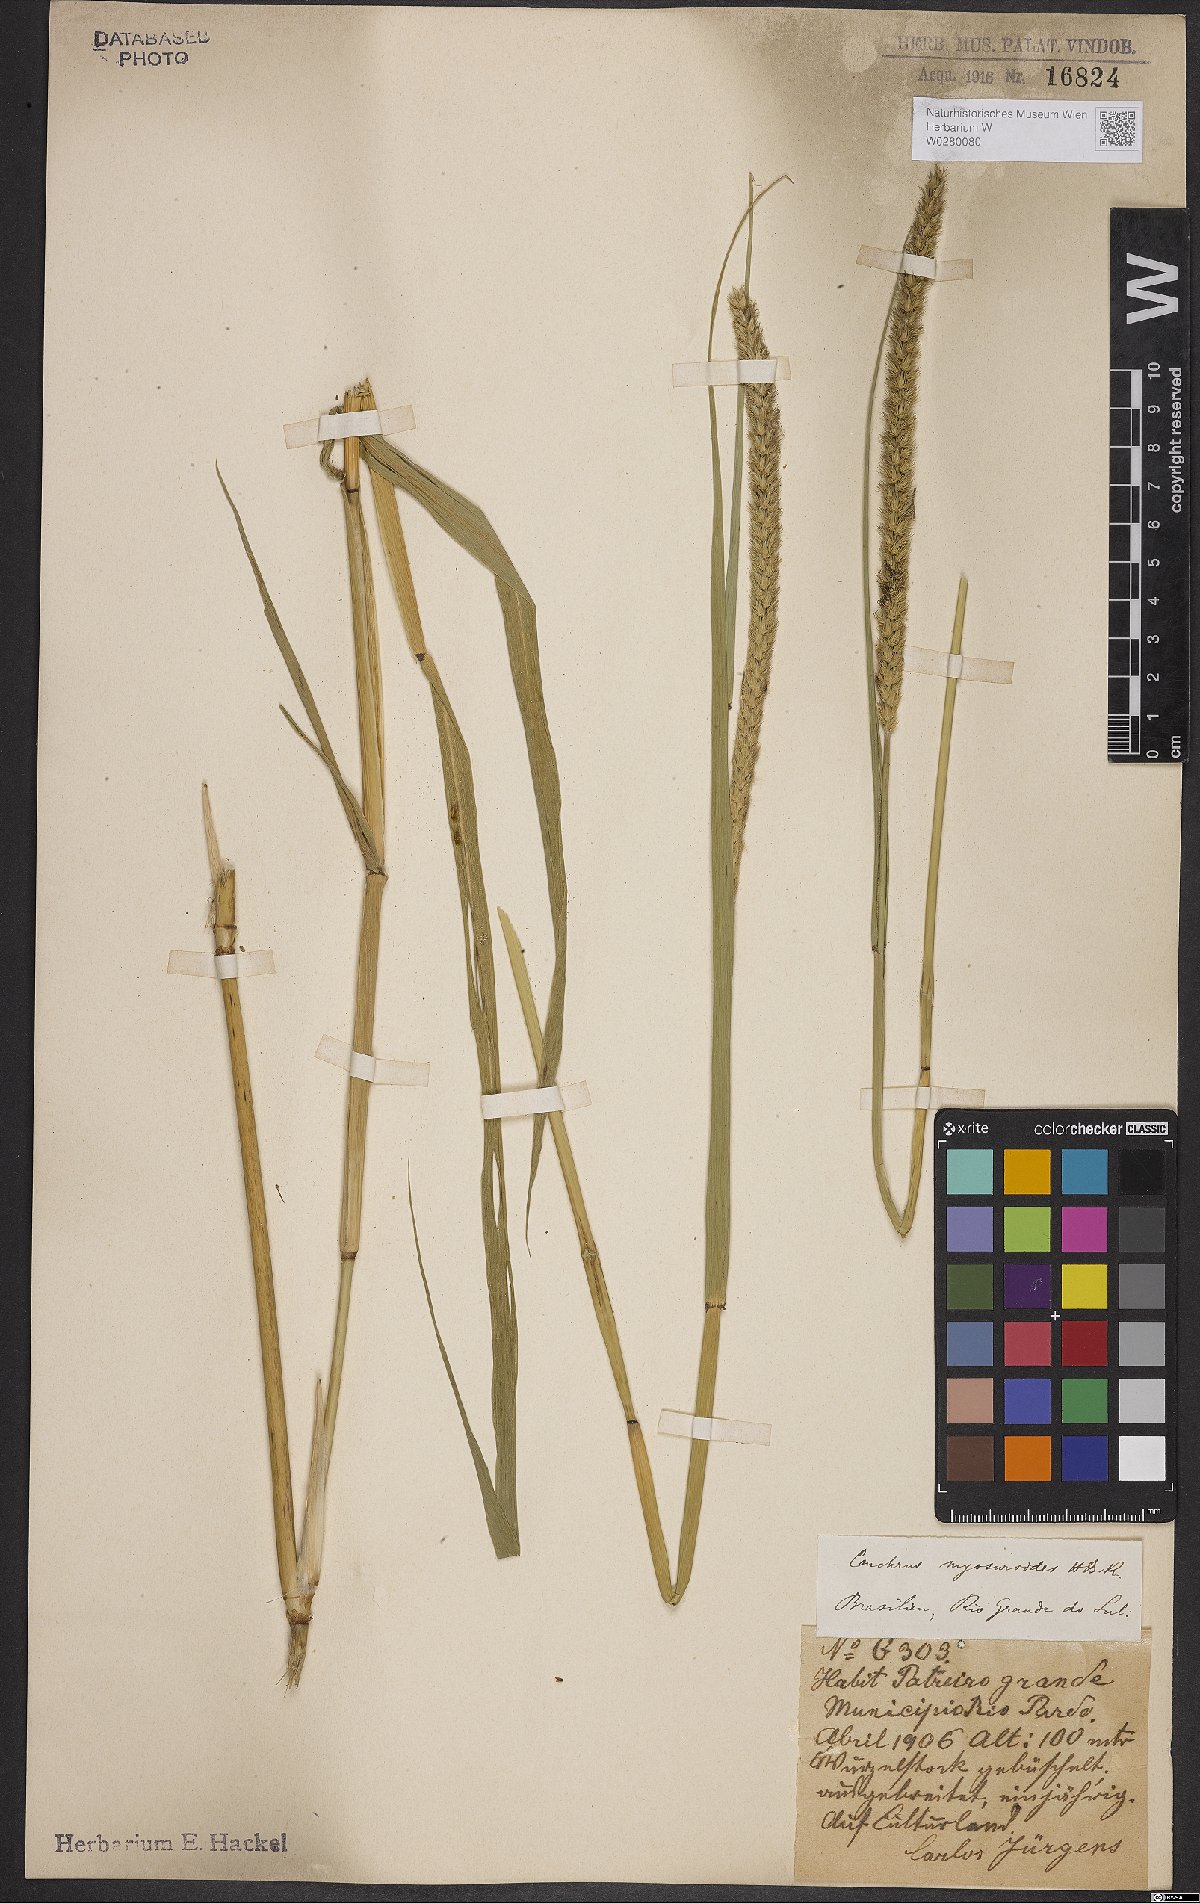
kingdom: Plantae
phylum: Tracheophyta
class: Liliopsida
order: Poales
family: Poaceae
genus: Cenchrus
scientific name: Cenchrus myosuroides
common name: Big sandbur
